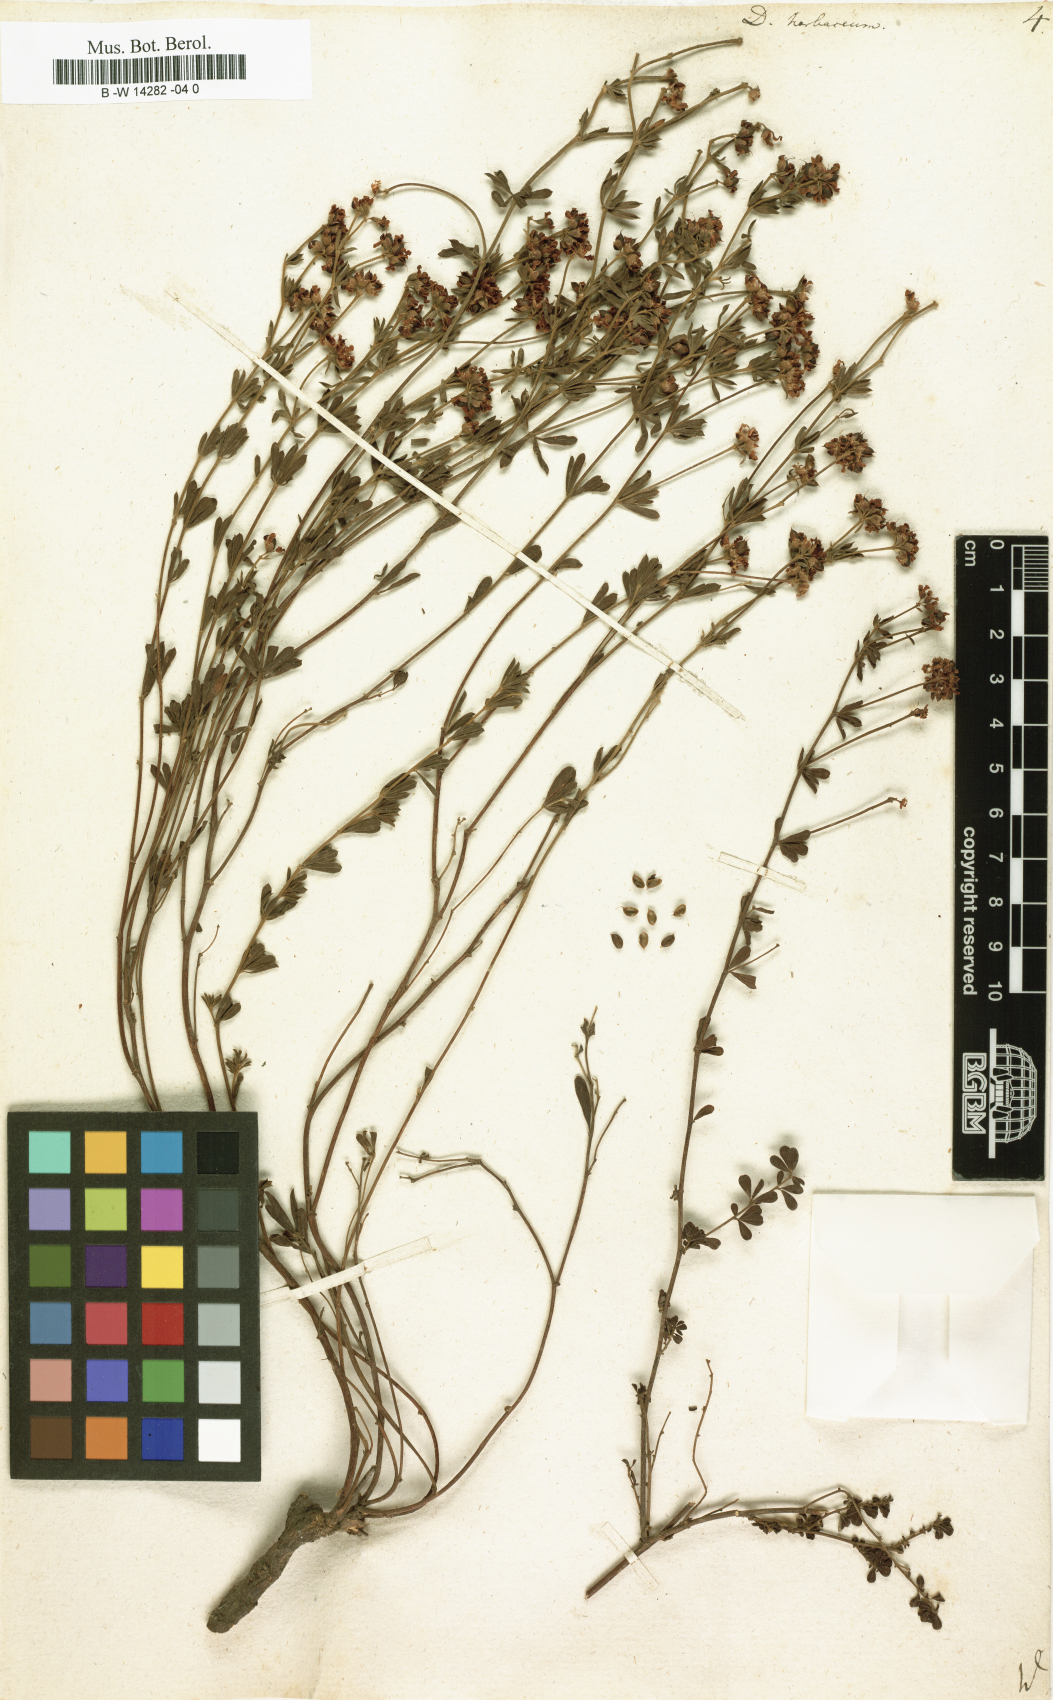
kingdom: Plantae
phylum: Tracheophyta
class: Magnoliopsida
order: Fabales
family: Fabaceae
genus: Lotus
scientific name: Lotus herbaceus
